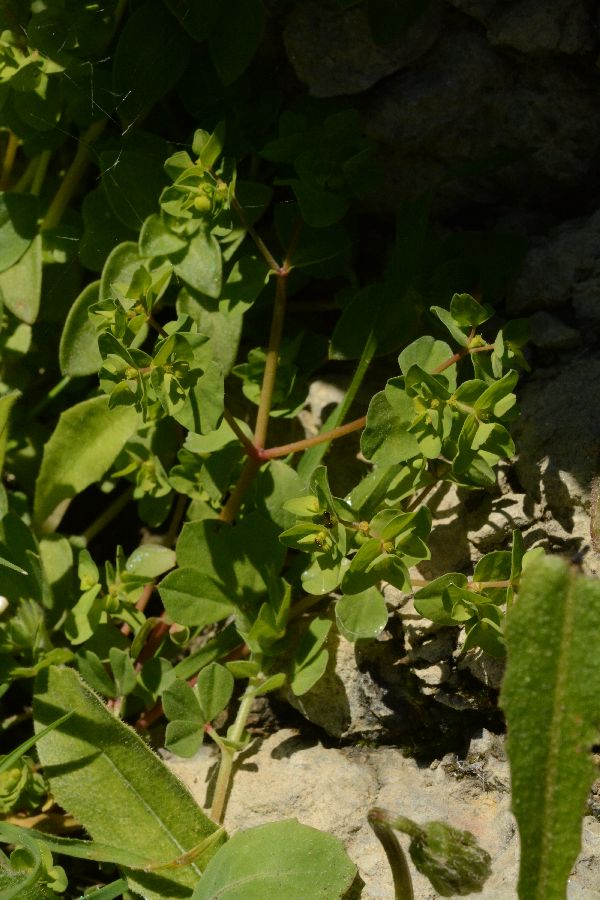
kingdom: Plantae
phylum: Tracheophyta
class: Magnoliopsida
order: Malpighiales
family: Euphorbiaceae
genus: Euphorbia
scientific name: Euphorbia peplus
